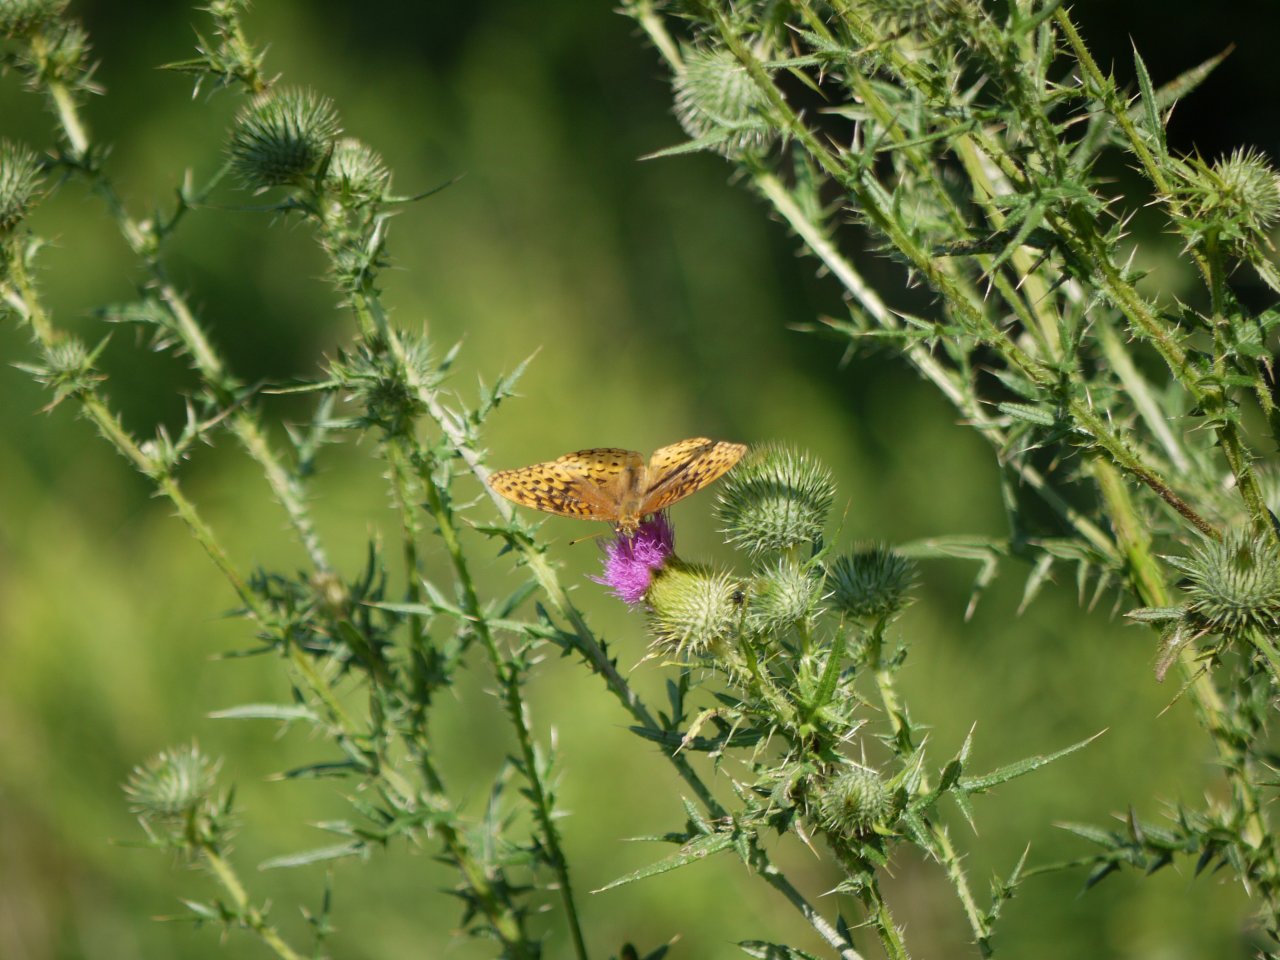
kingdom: Animalia
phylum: Arthropoda
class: Insecta
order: Lepidoptera
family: Nymphalidae
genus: Speyeria
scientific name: Speyeria cybele
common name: Great Spangled Fritillary
